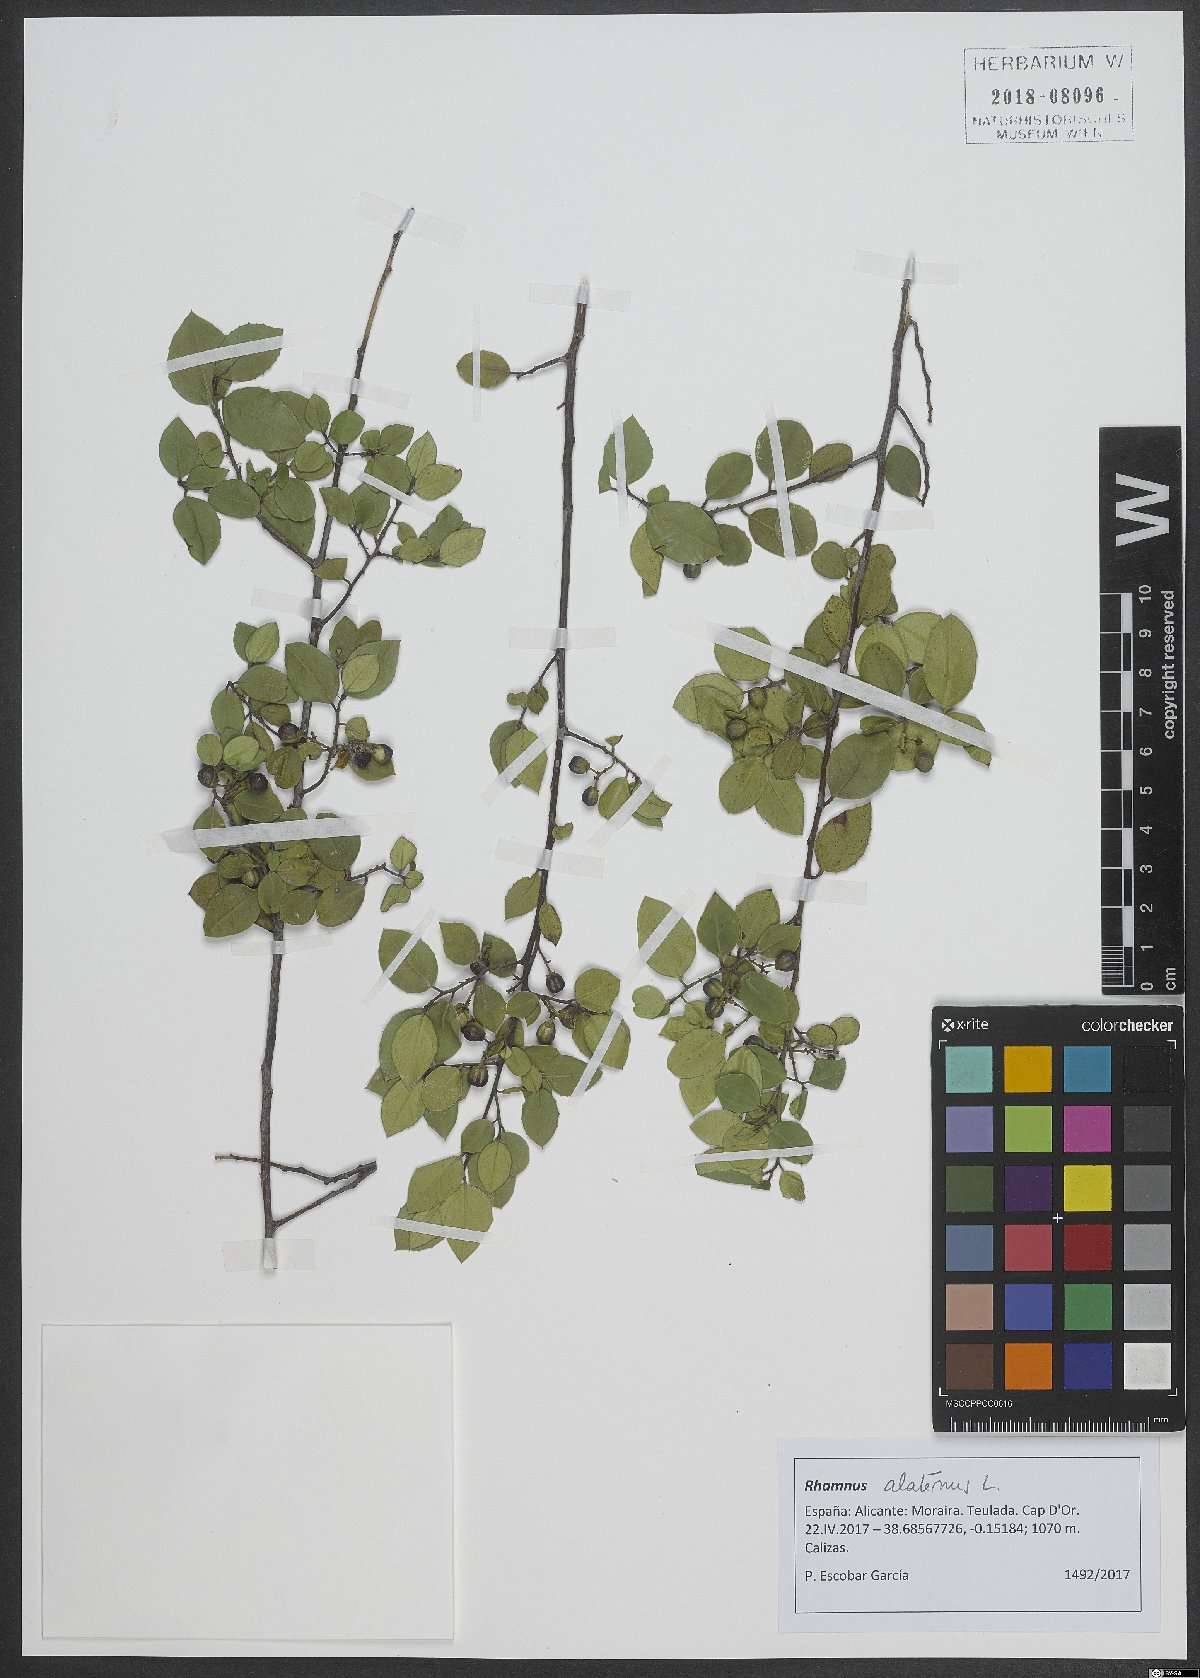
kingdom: Plantae
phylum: Tracheophyta
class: Magnoliopsida
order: Rosales
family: Rhamnaceae
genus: Rhamnus
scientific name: Rhamnus alaternus
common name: Mediterranean buckthorn
